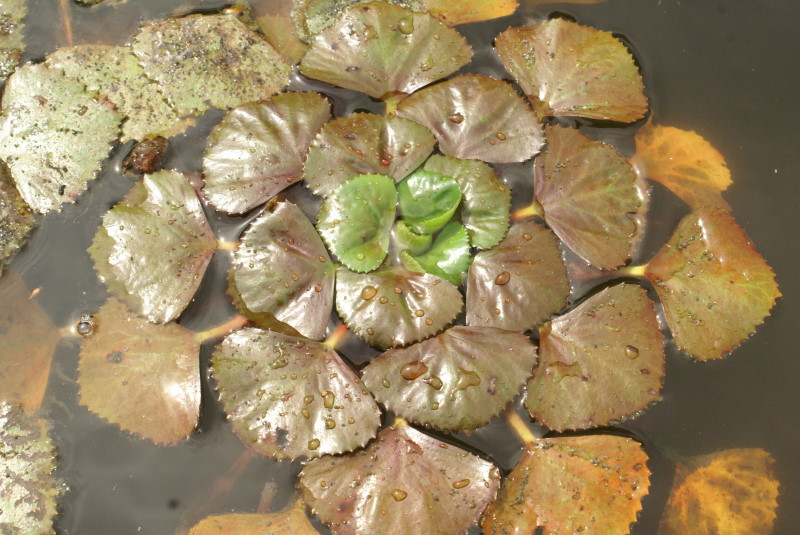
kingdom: Plantae
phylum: Tracheophyta
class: Magnoliopsida
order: Myrtales
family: Lythraceae
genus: Trapa
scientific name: Trapa natans
